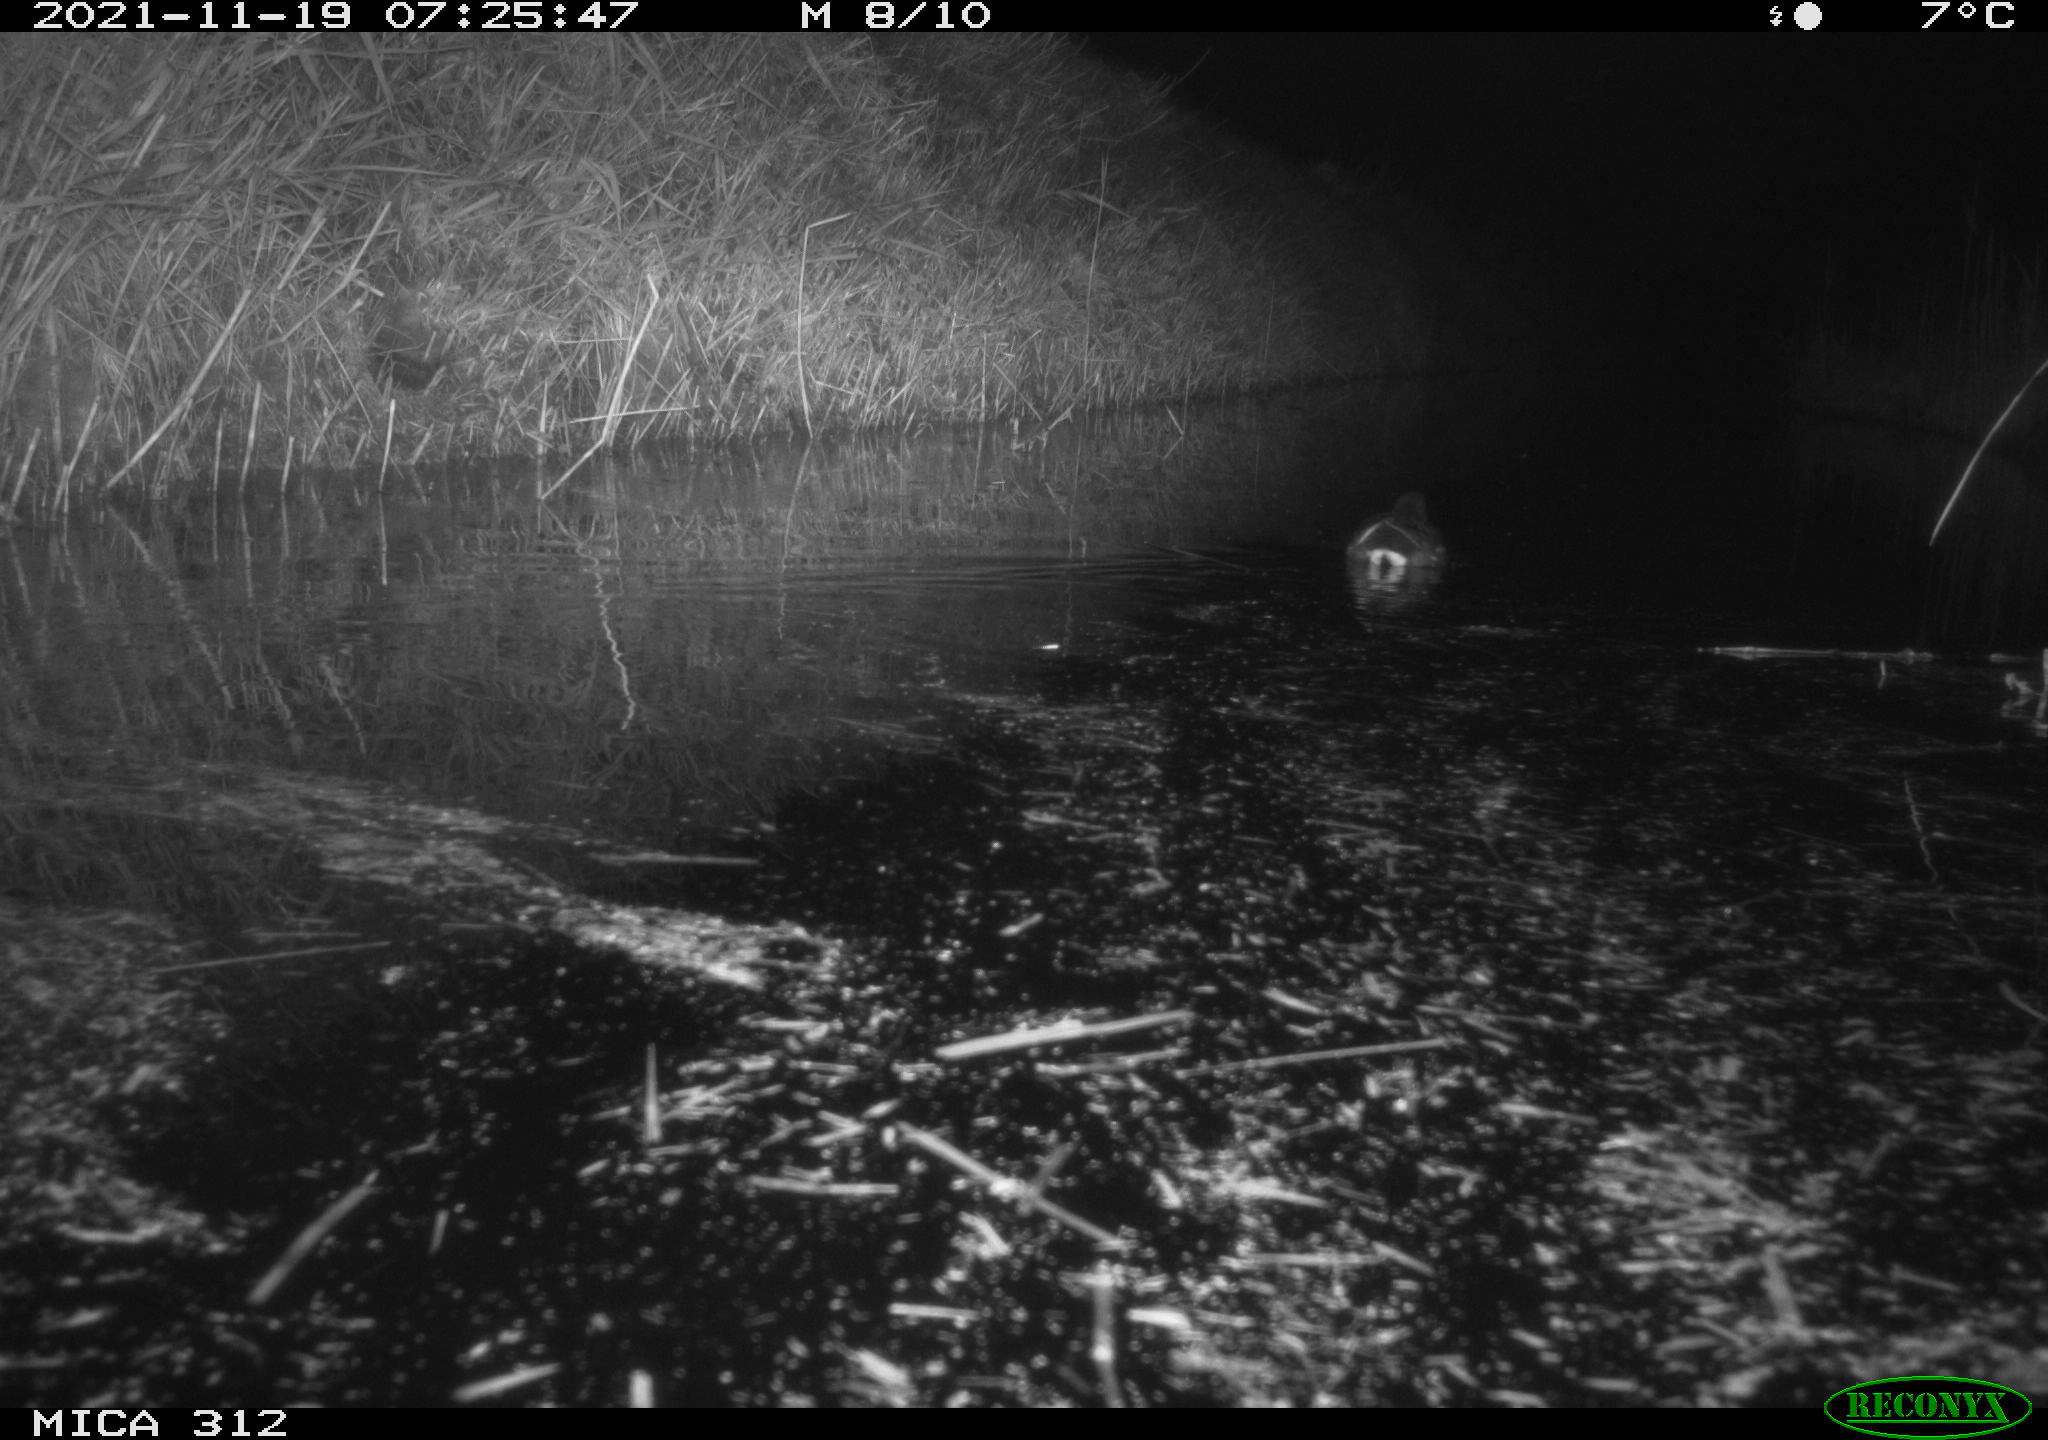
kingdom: Animalia
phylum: Chordata
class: Aves
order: Anseriformes
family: Anatidae
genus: Anas
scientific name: Anas
